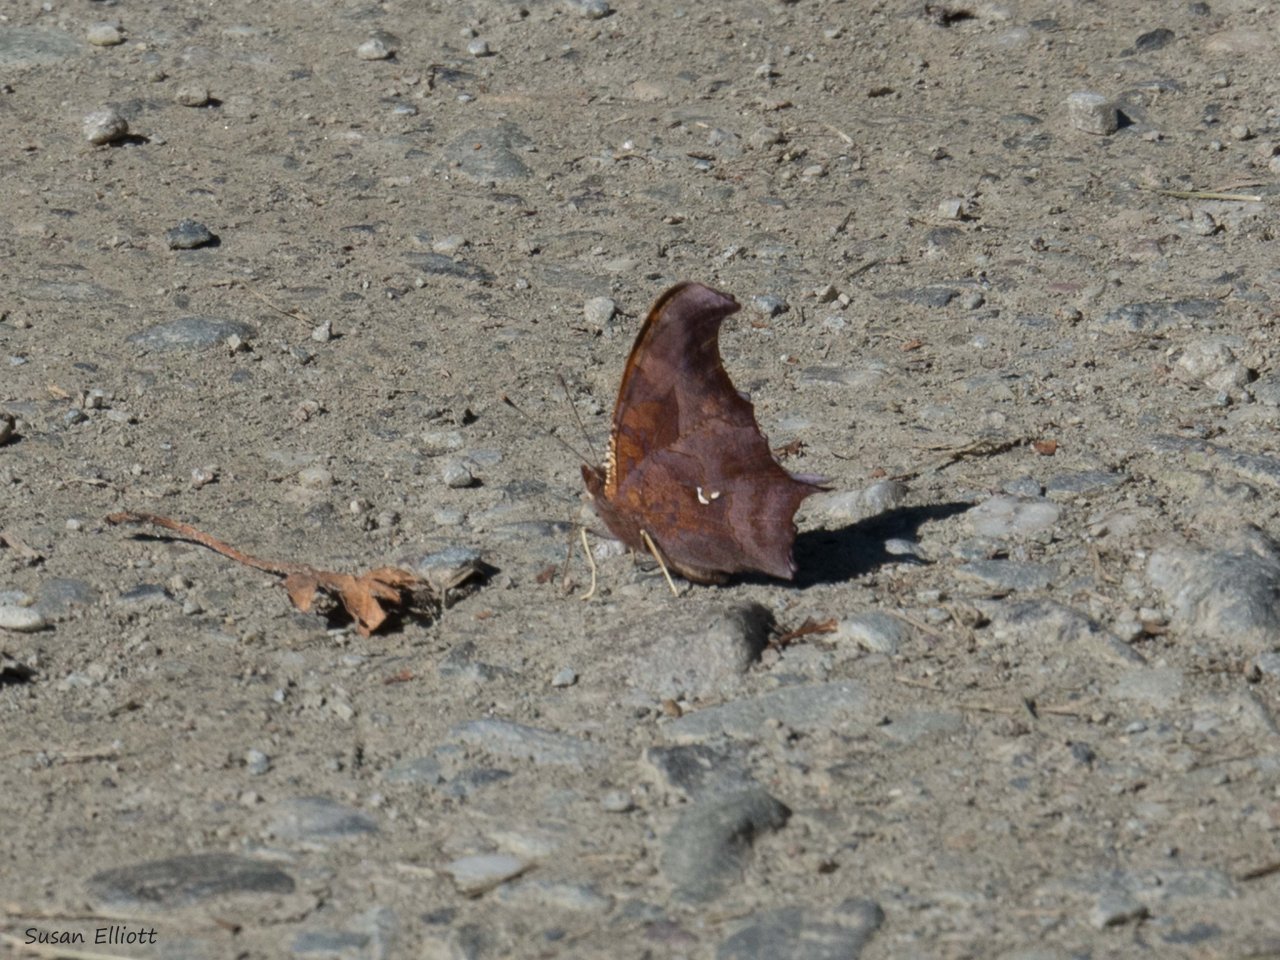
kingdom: Animalia
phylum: Arthropoda
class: Insecta
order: Lepidoptera
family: Nymphalidae
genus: Polygonia
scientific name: Polygonia interrogationis
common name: Question Mark
